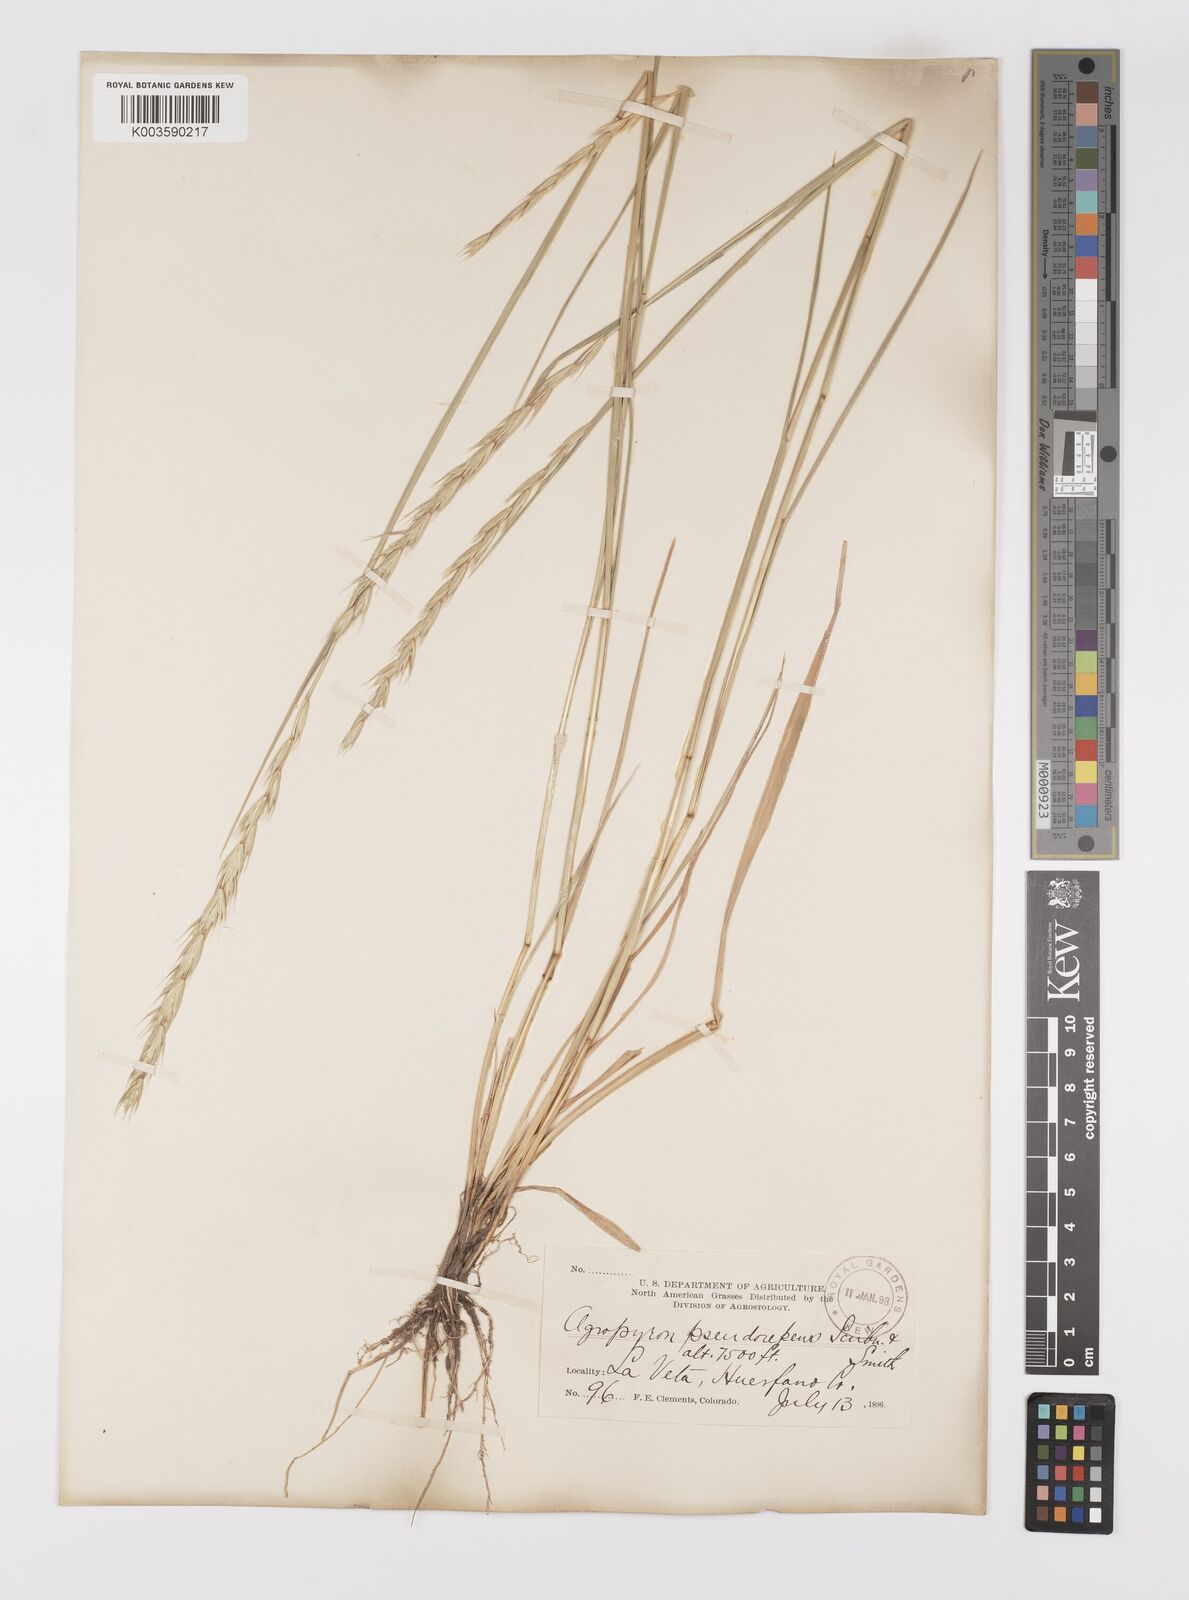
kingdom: Plantae
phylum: Tracheophyta
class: Liliopsida
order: Poales
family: Poaceae
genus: Elymus
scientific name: Elymus violaceus
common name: Arctic wheatgrass
